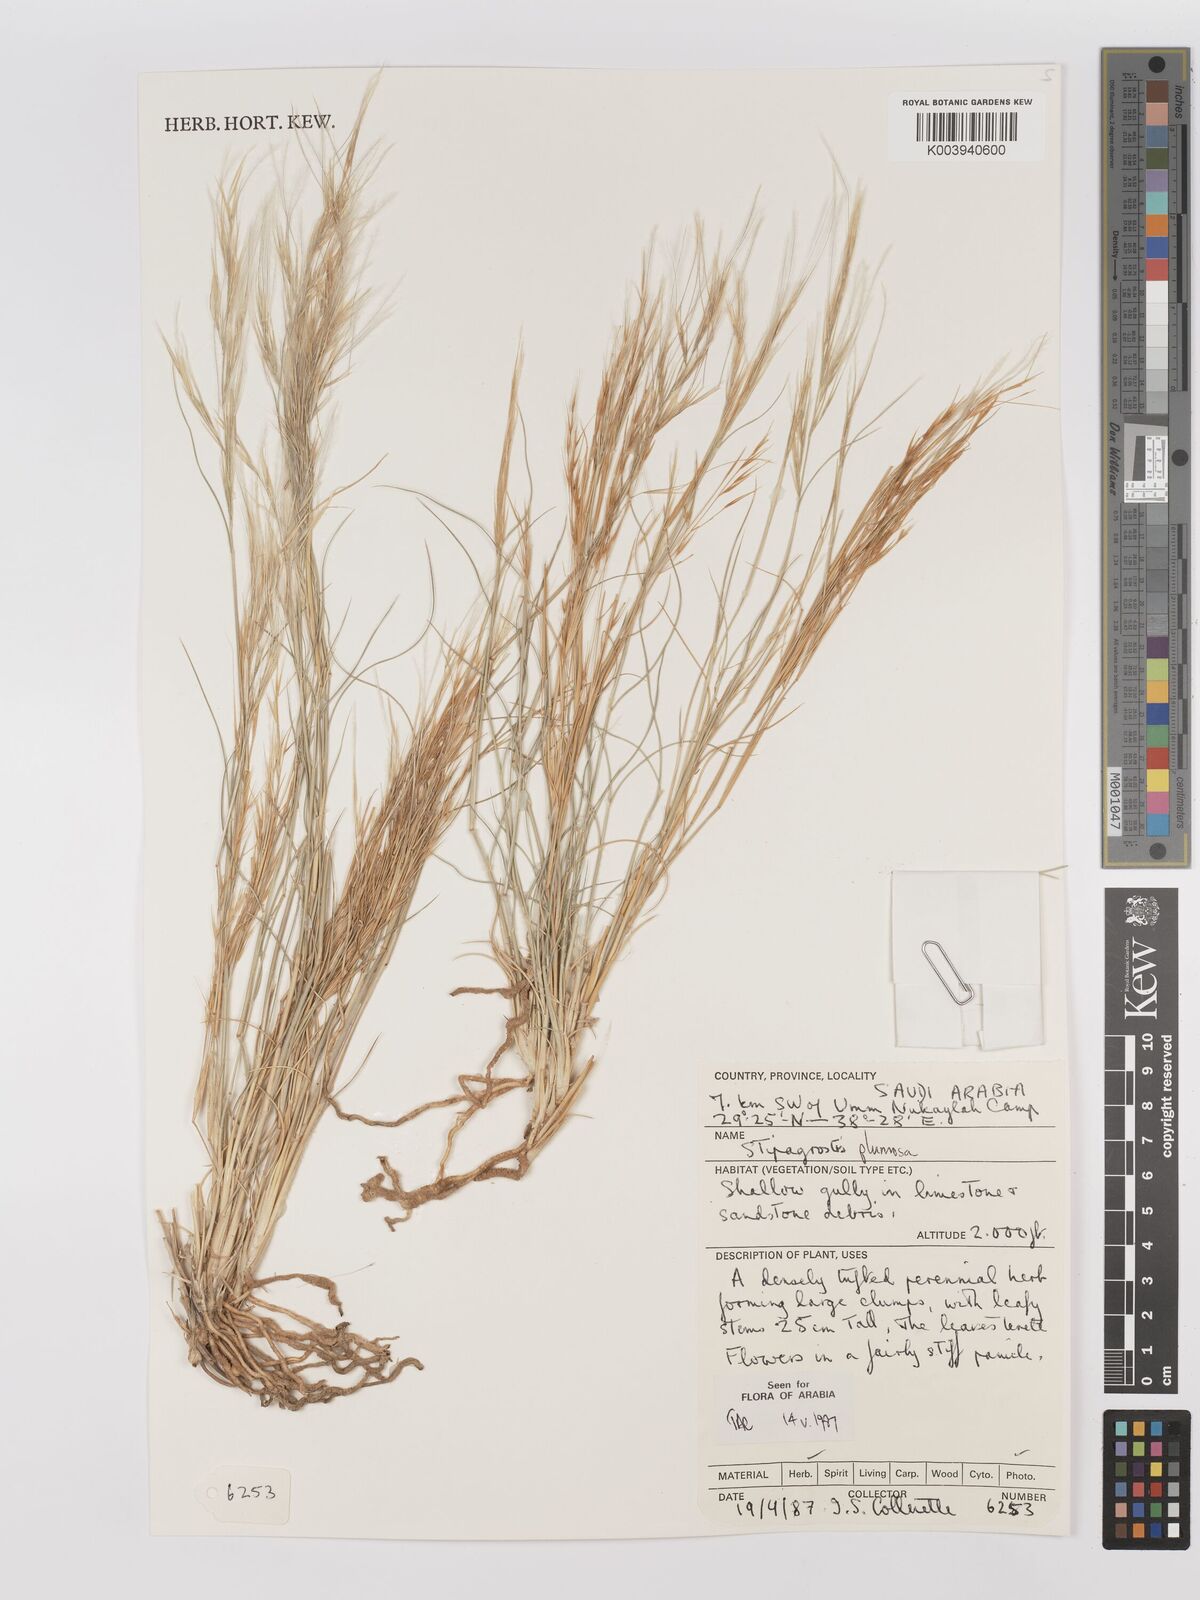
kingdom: Plantae
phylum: Tracheophyta
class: Liliopsida
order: Poales
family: Poaceae
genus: Stipagrostis
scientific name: Stipagrostis plumosa
